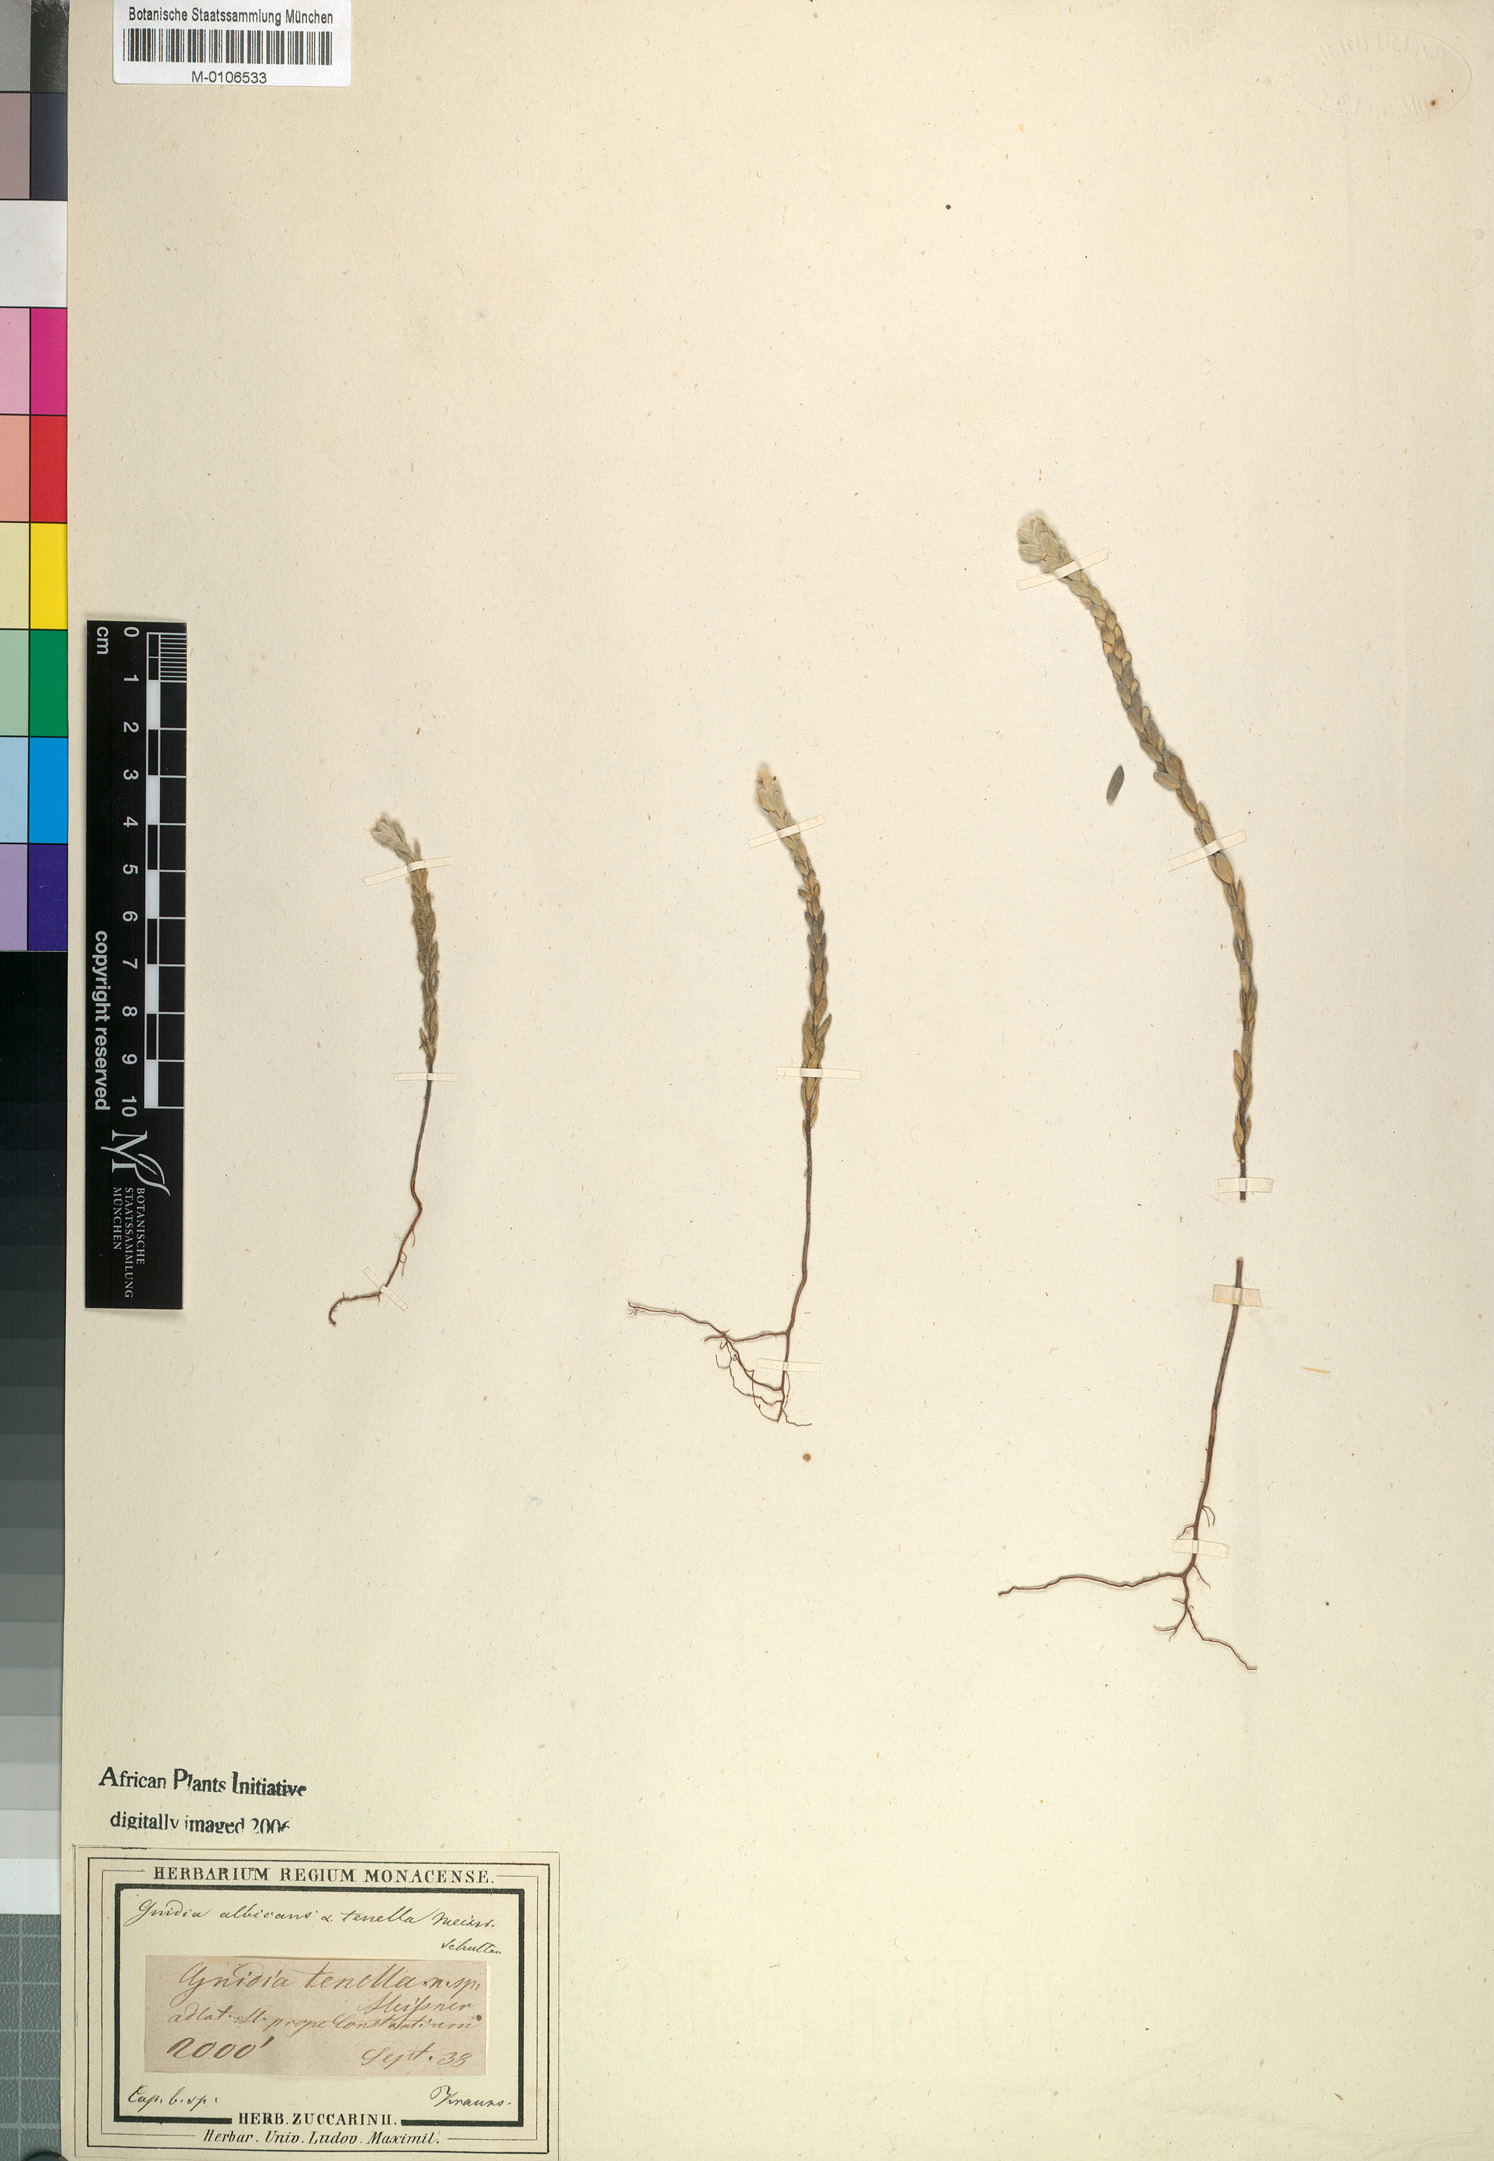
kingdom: Plantae
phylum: Tracheophyta
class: Magnoliopsida
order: Malvales
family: Thymelaeaceae
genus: Gnidia
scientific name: Gnidia tenella
